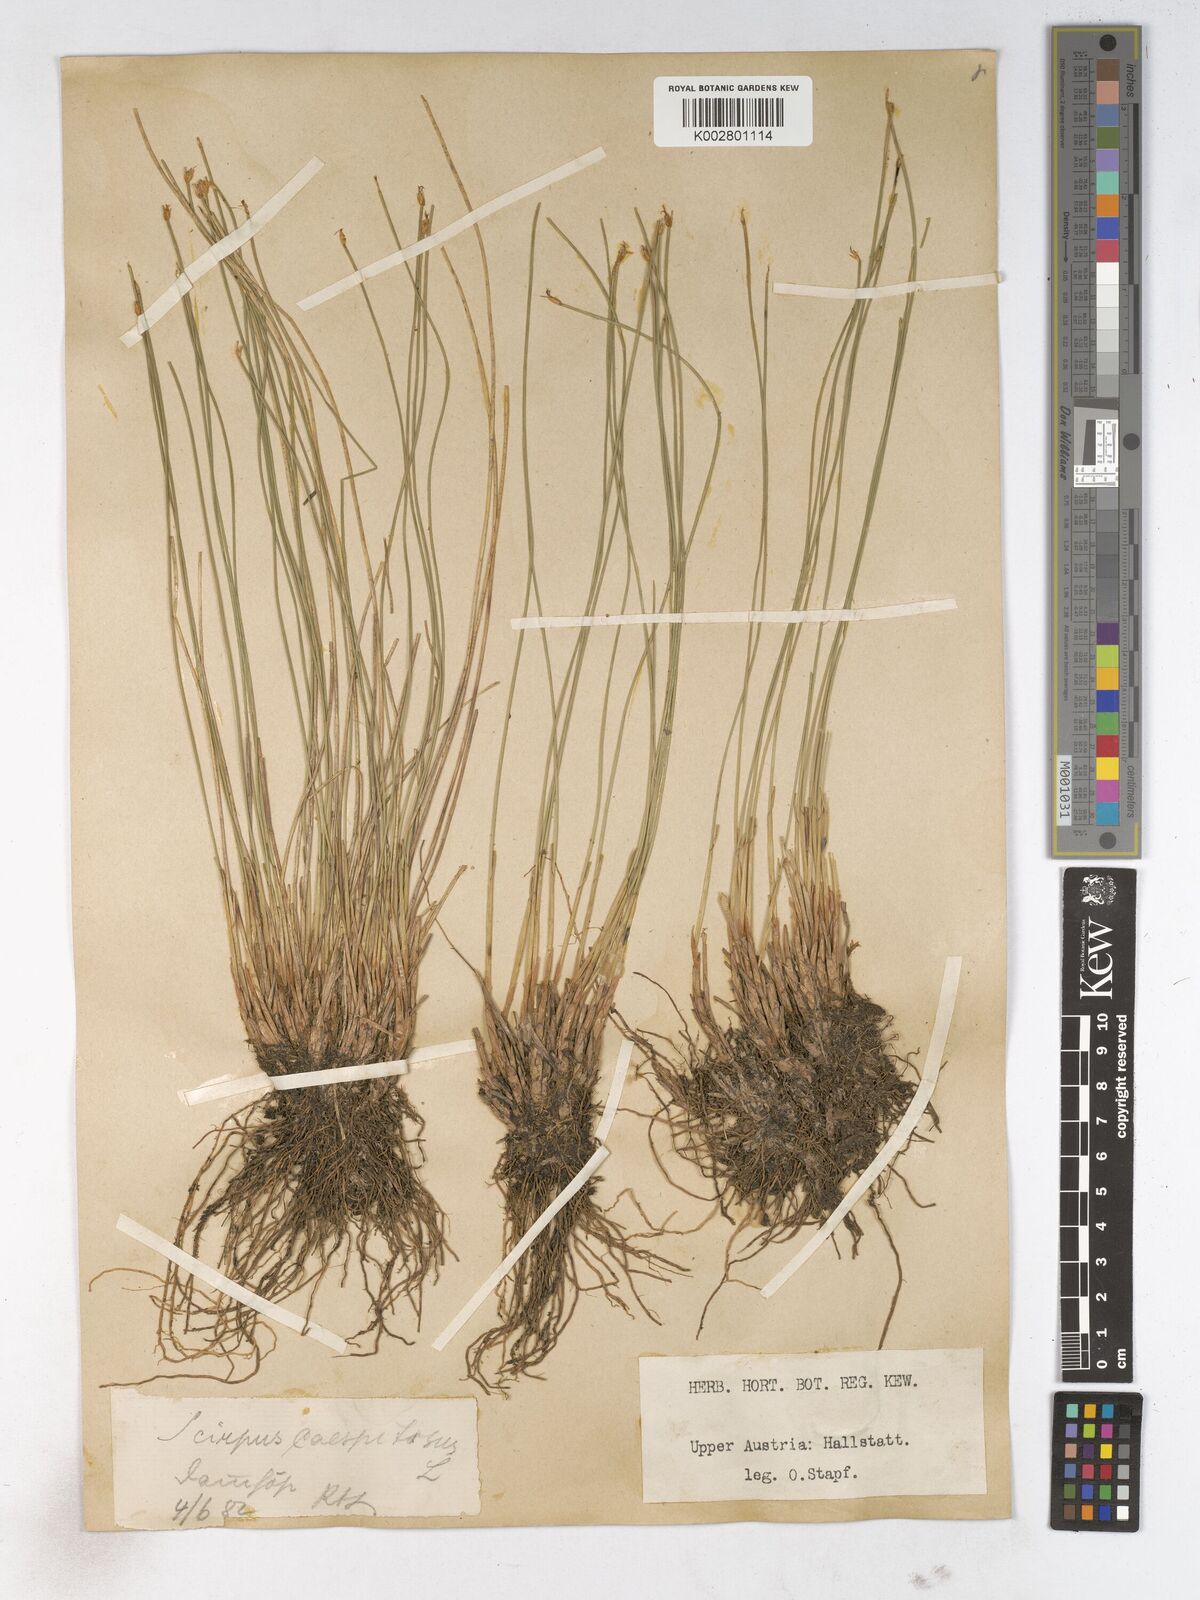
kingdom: Plantae
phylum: Tracheophyta
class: Liliopsida
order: Poales
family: Cyperaceae
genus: Trichophorum
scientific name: Trichophorum cespitosum
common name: Cespitose bulrush
